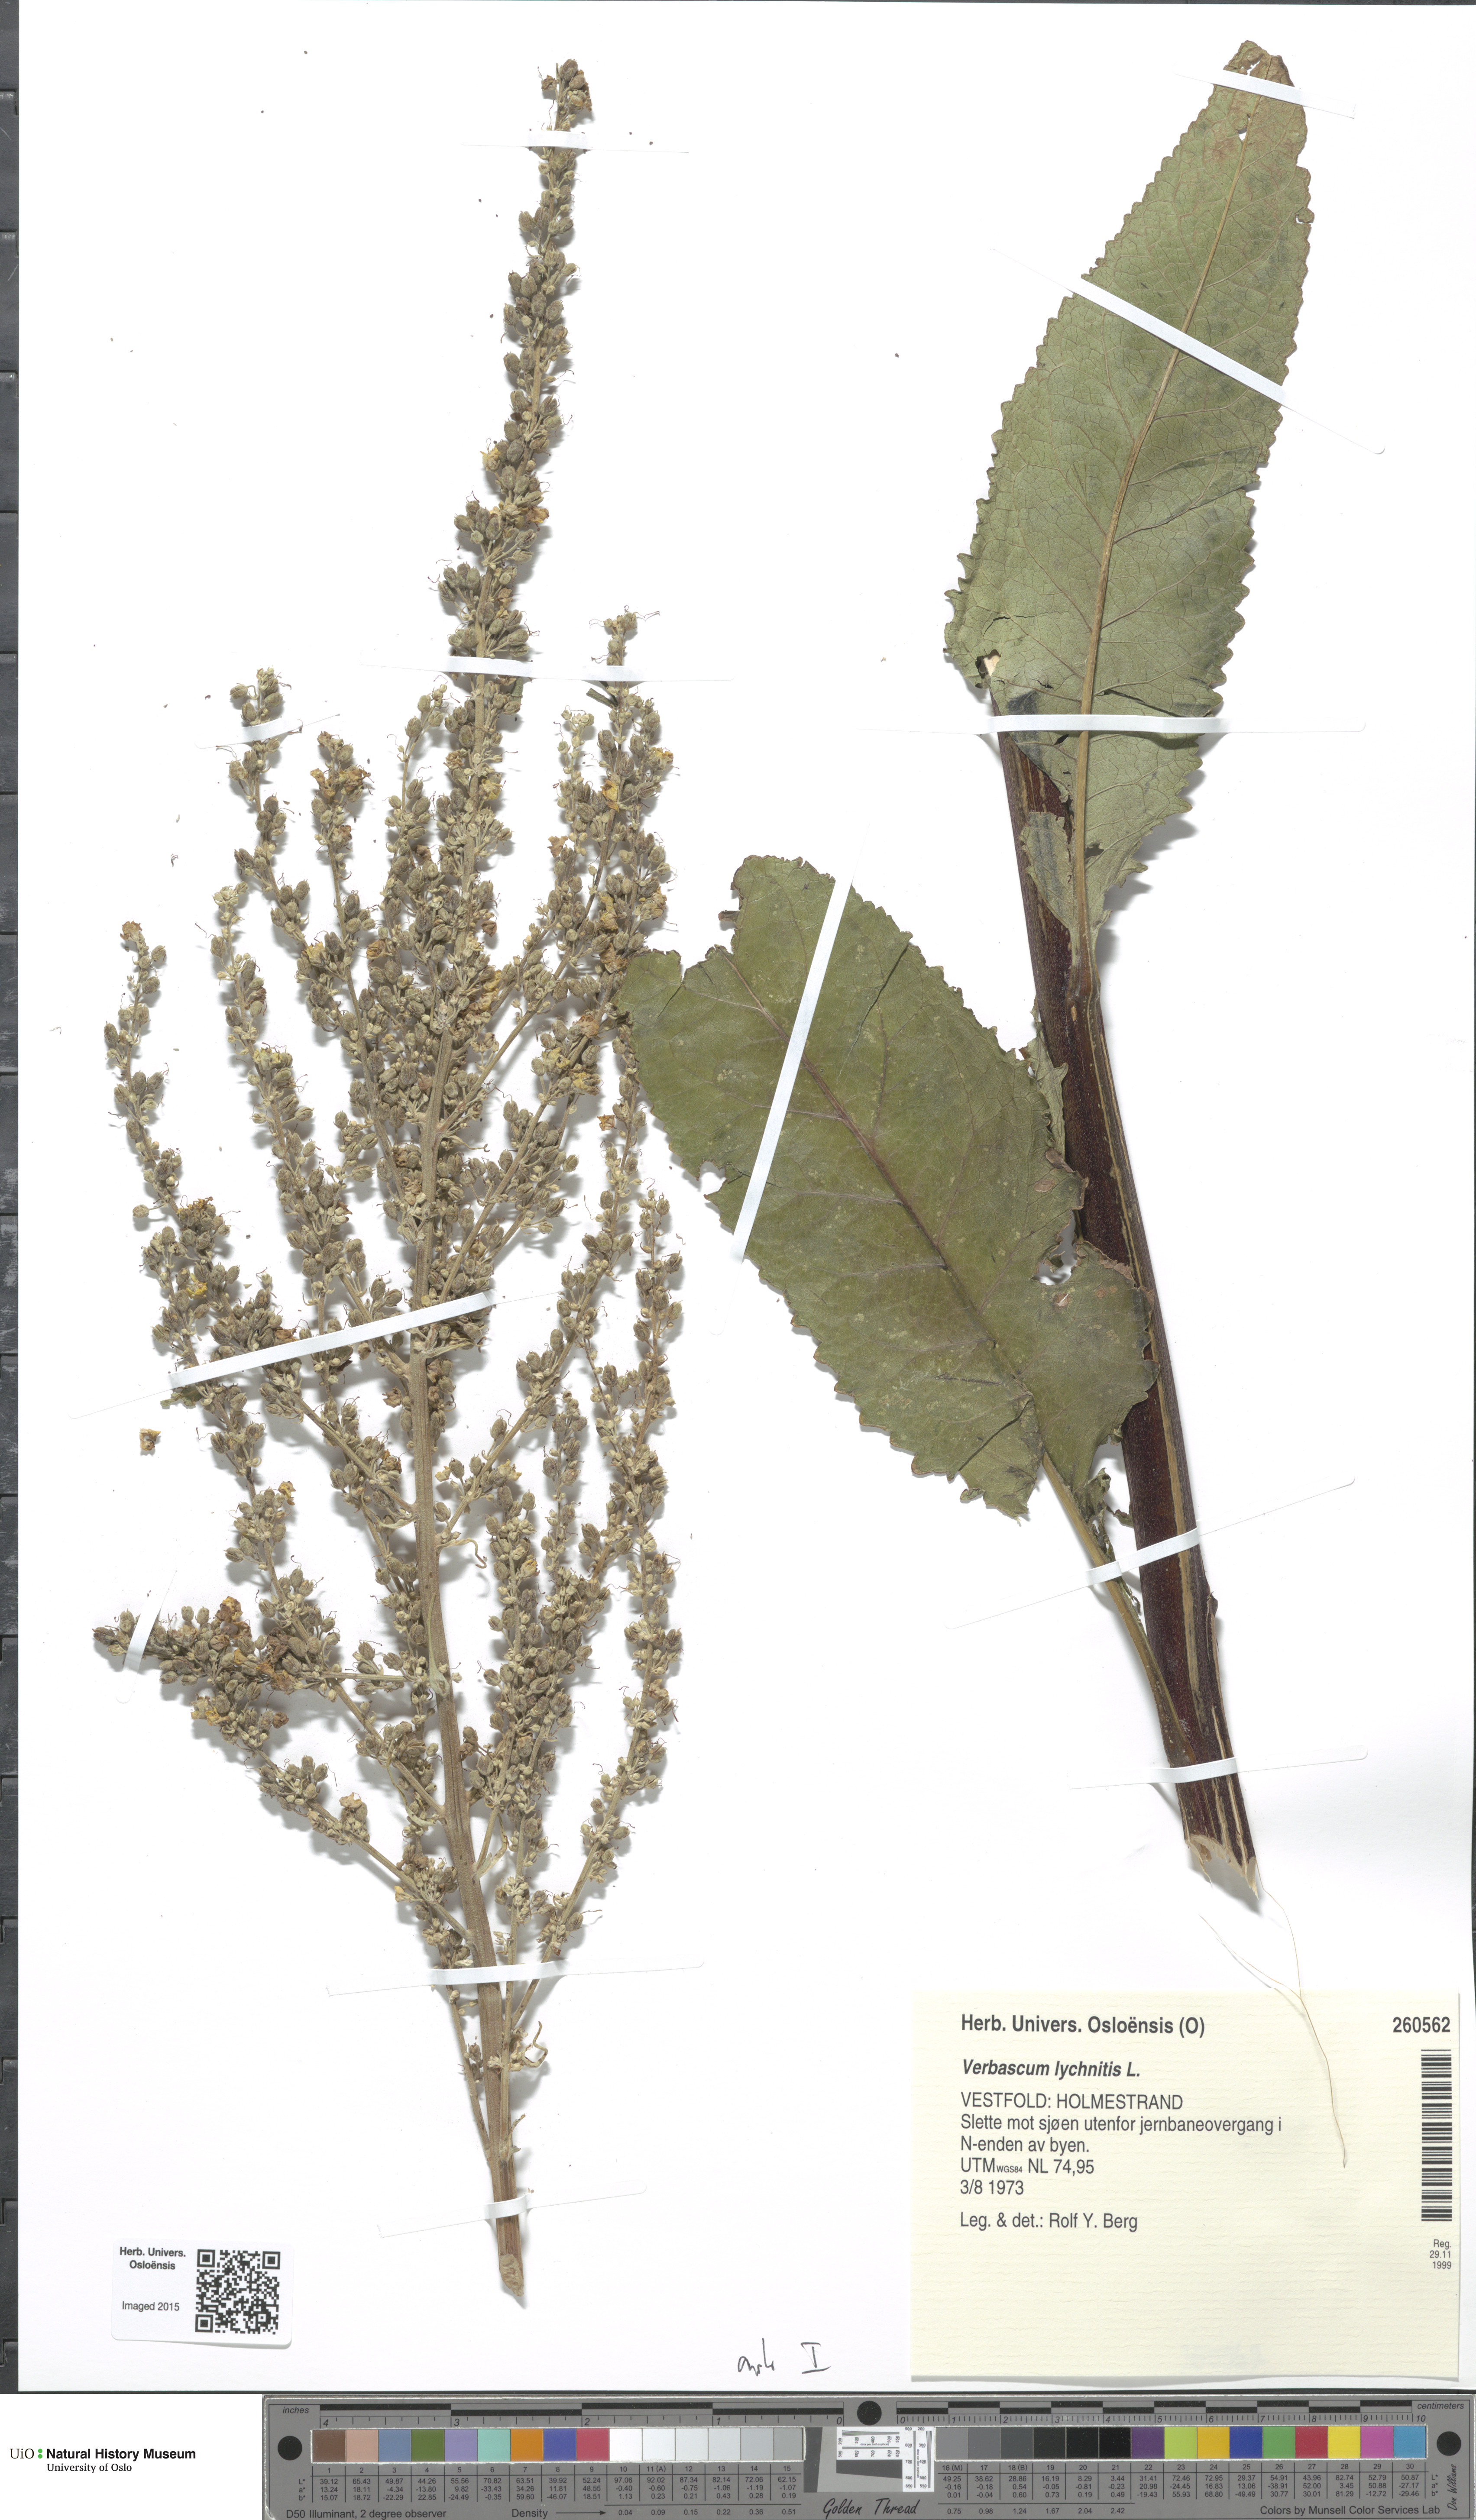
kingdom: Plantae
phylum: Tracheophyta
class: Magnoliopsida
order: Lamiales
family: Scrophulariaceae
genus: Verbascum
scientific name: Verbascum lychnitis
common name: White mullein
